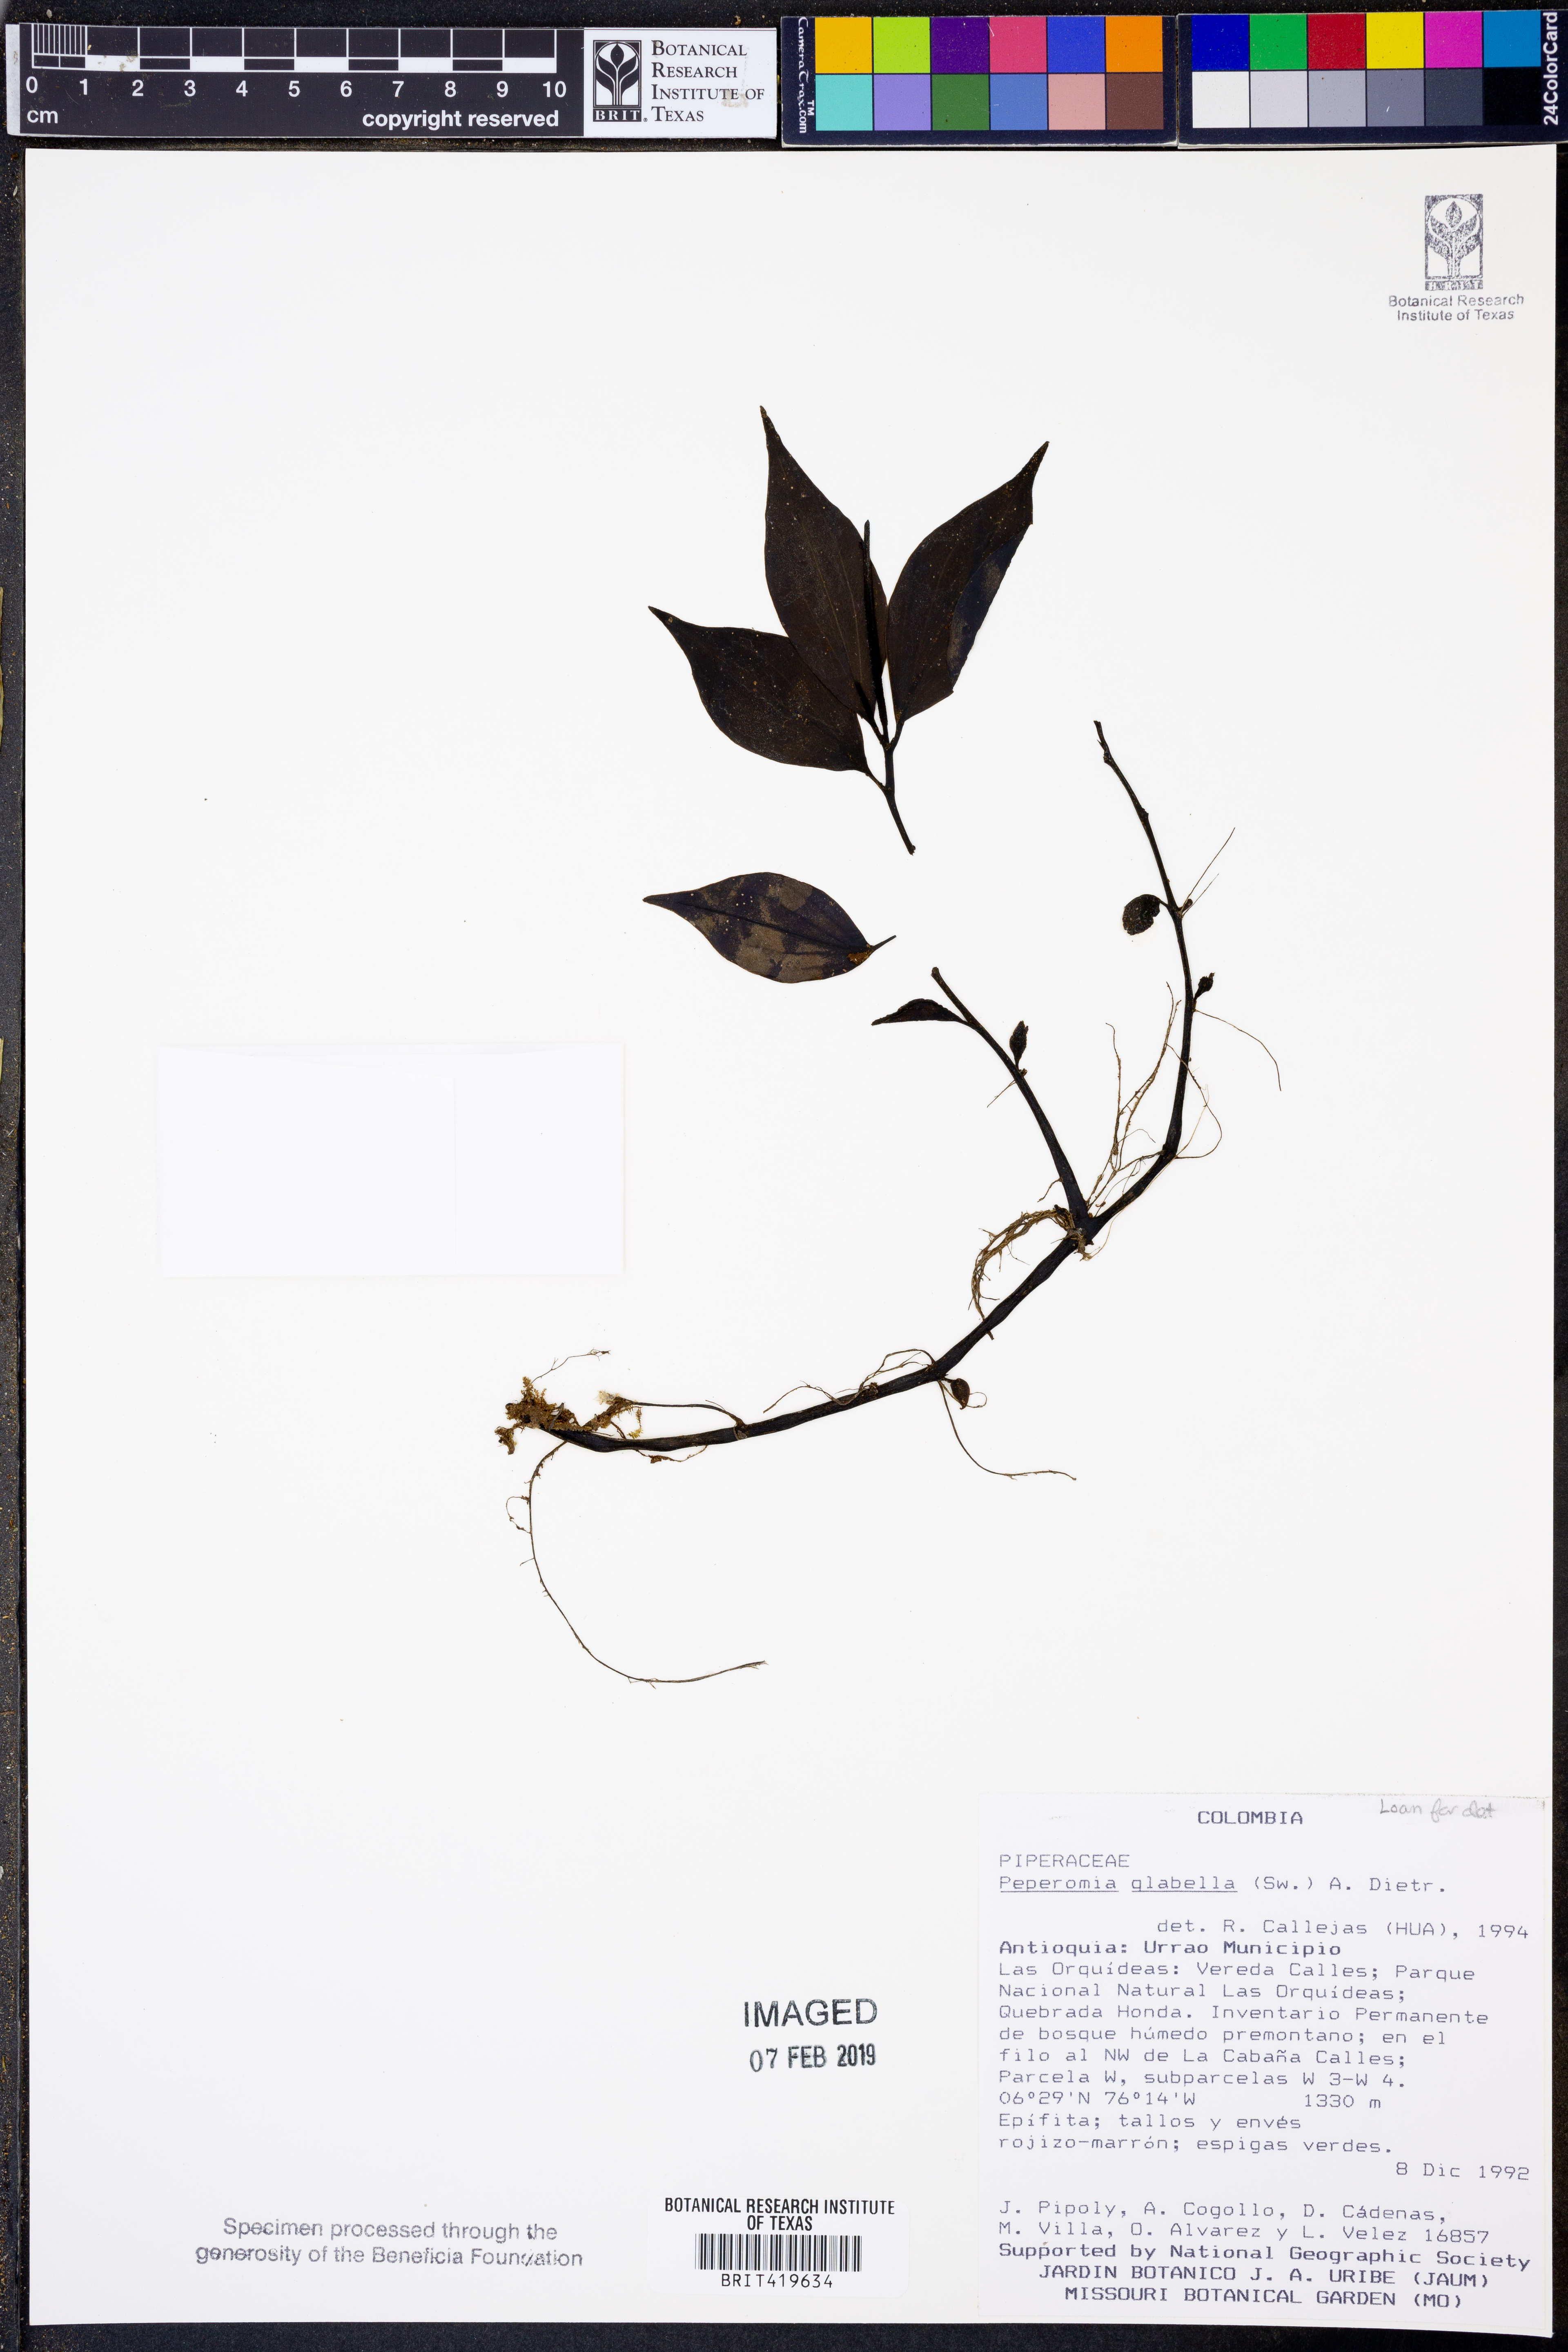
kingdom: Plantae
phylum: Tracheophyta
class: Magnoliopsida
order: Piperales
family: Piperaceae
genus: Peperomia
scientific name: Peperomia glabella
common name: Cypress peperomia
